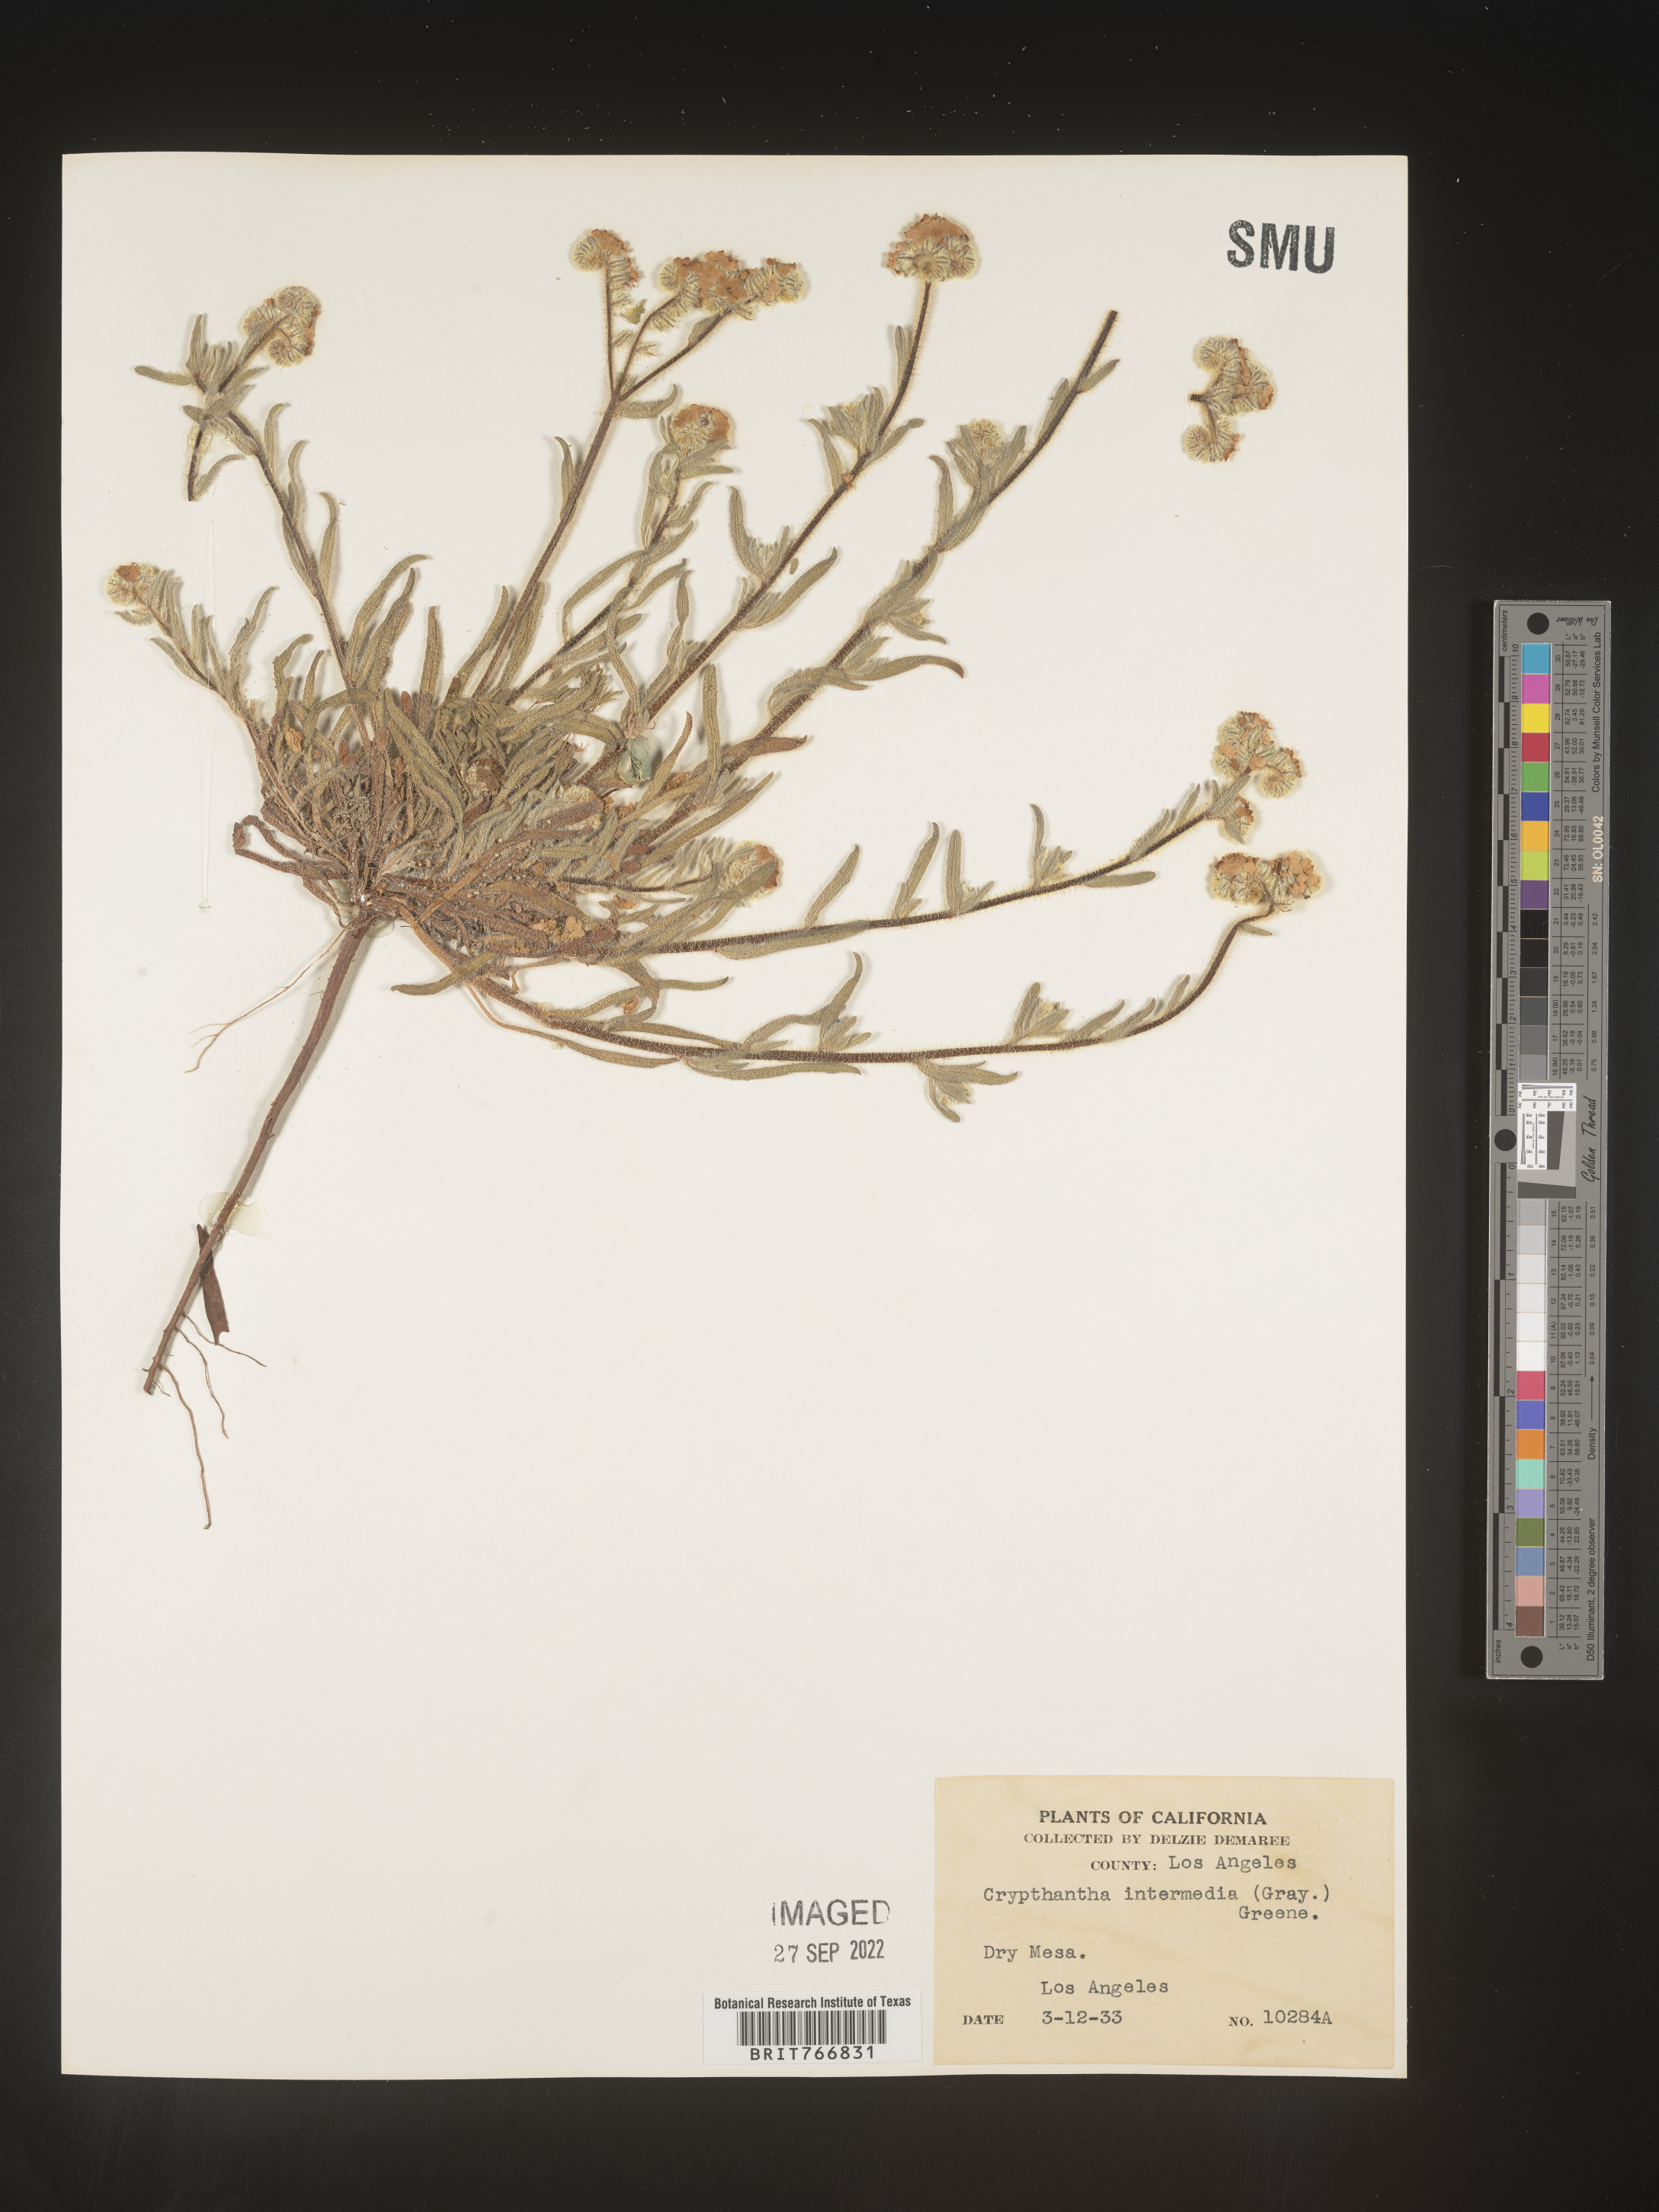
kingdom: Plantae
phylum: Tracheophyta
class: Magnoliopsida
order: Boraginales
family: Boraginaceae
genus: Cryptantha
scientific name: Cryptantha
